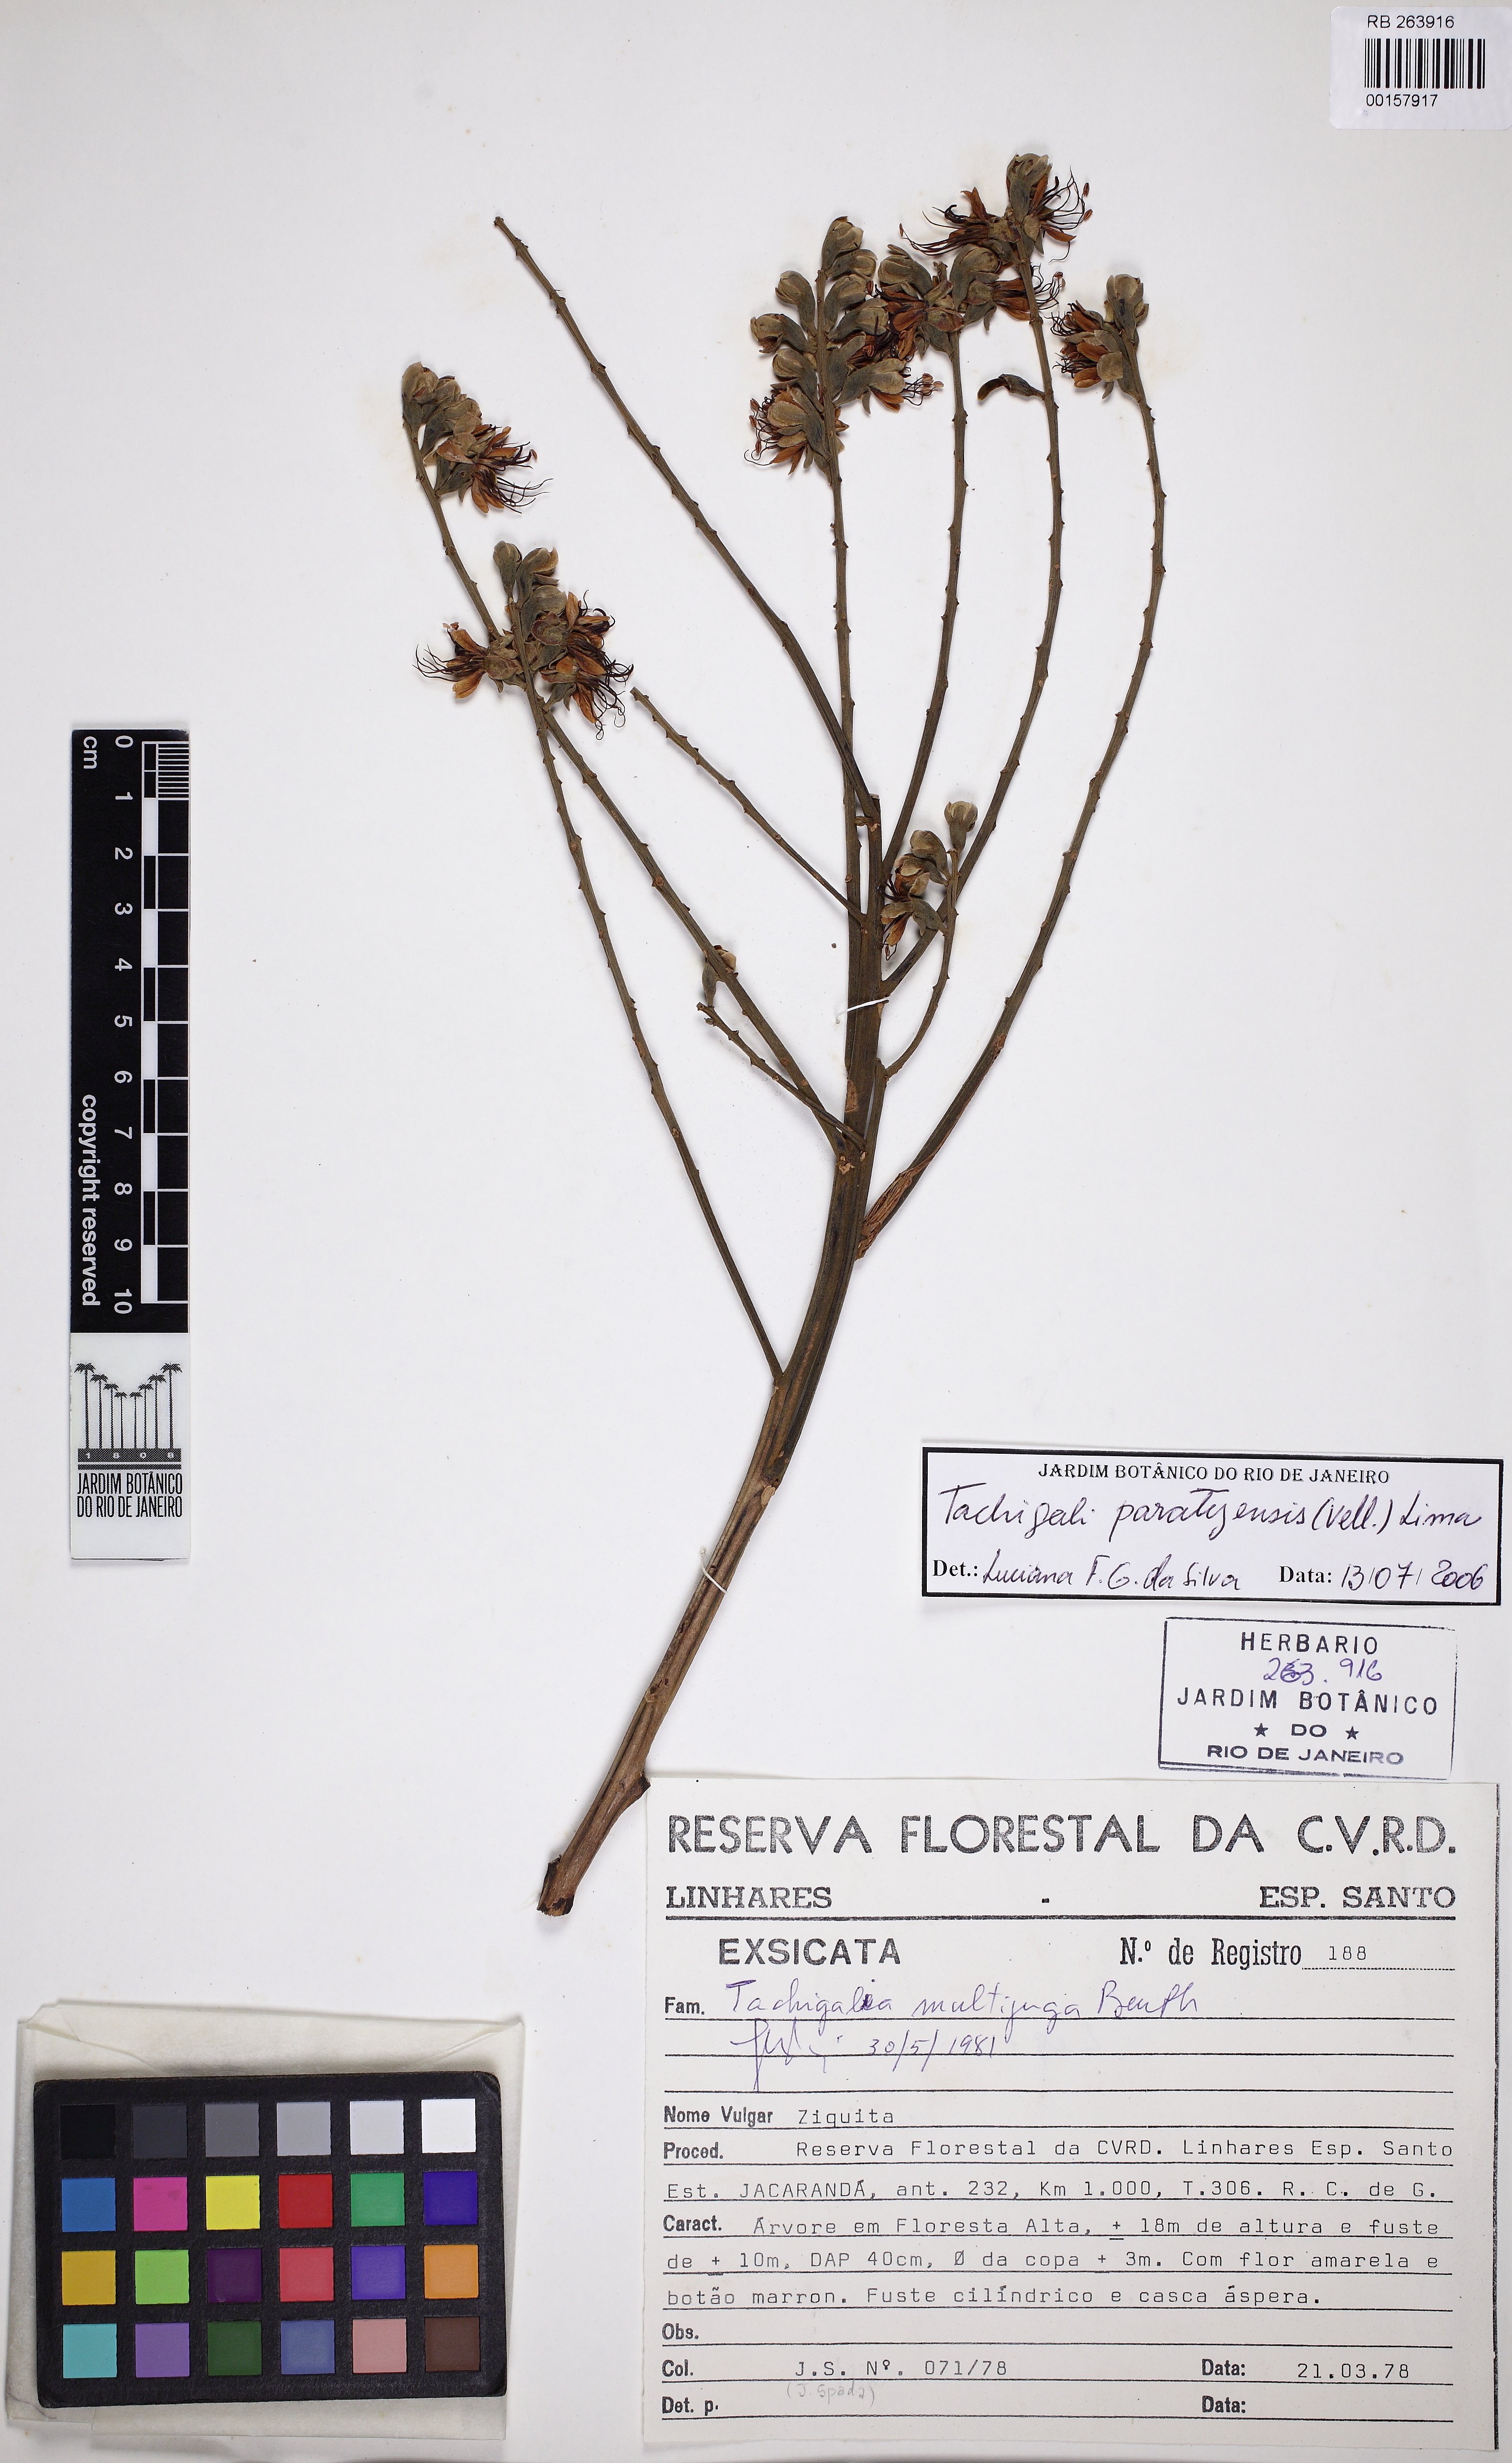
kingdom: Plantae
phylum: Tracheophyta
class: Magnoliopsida
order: Fabales
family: Fabaceae
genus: Tachigali
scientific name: Tachigali paratyensis
